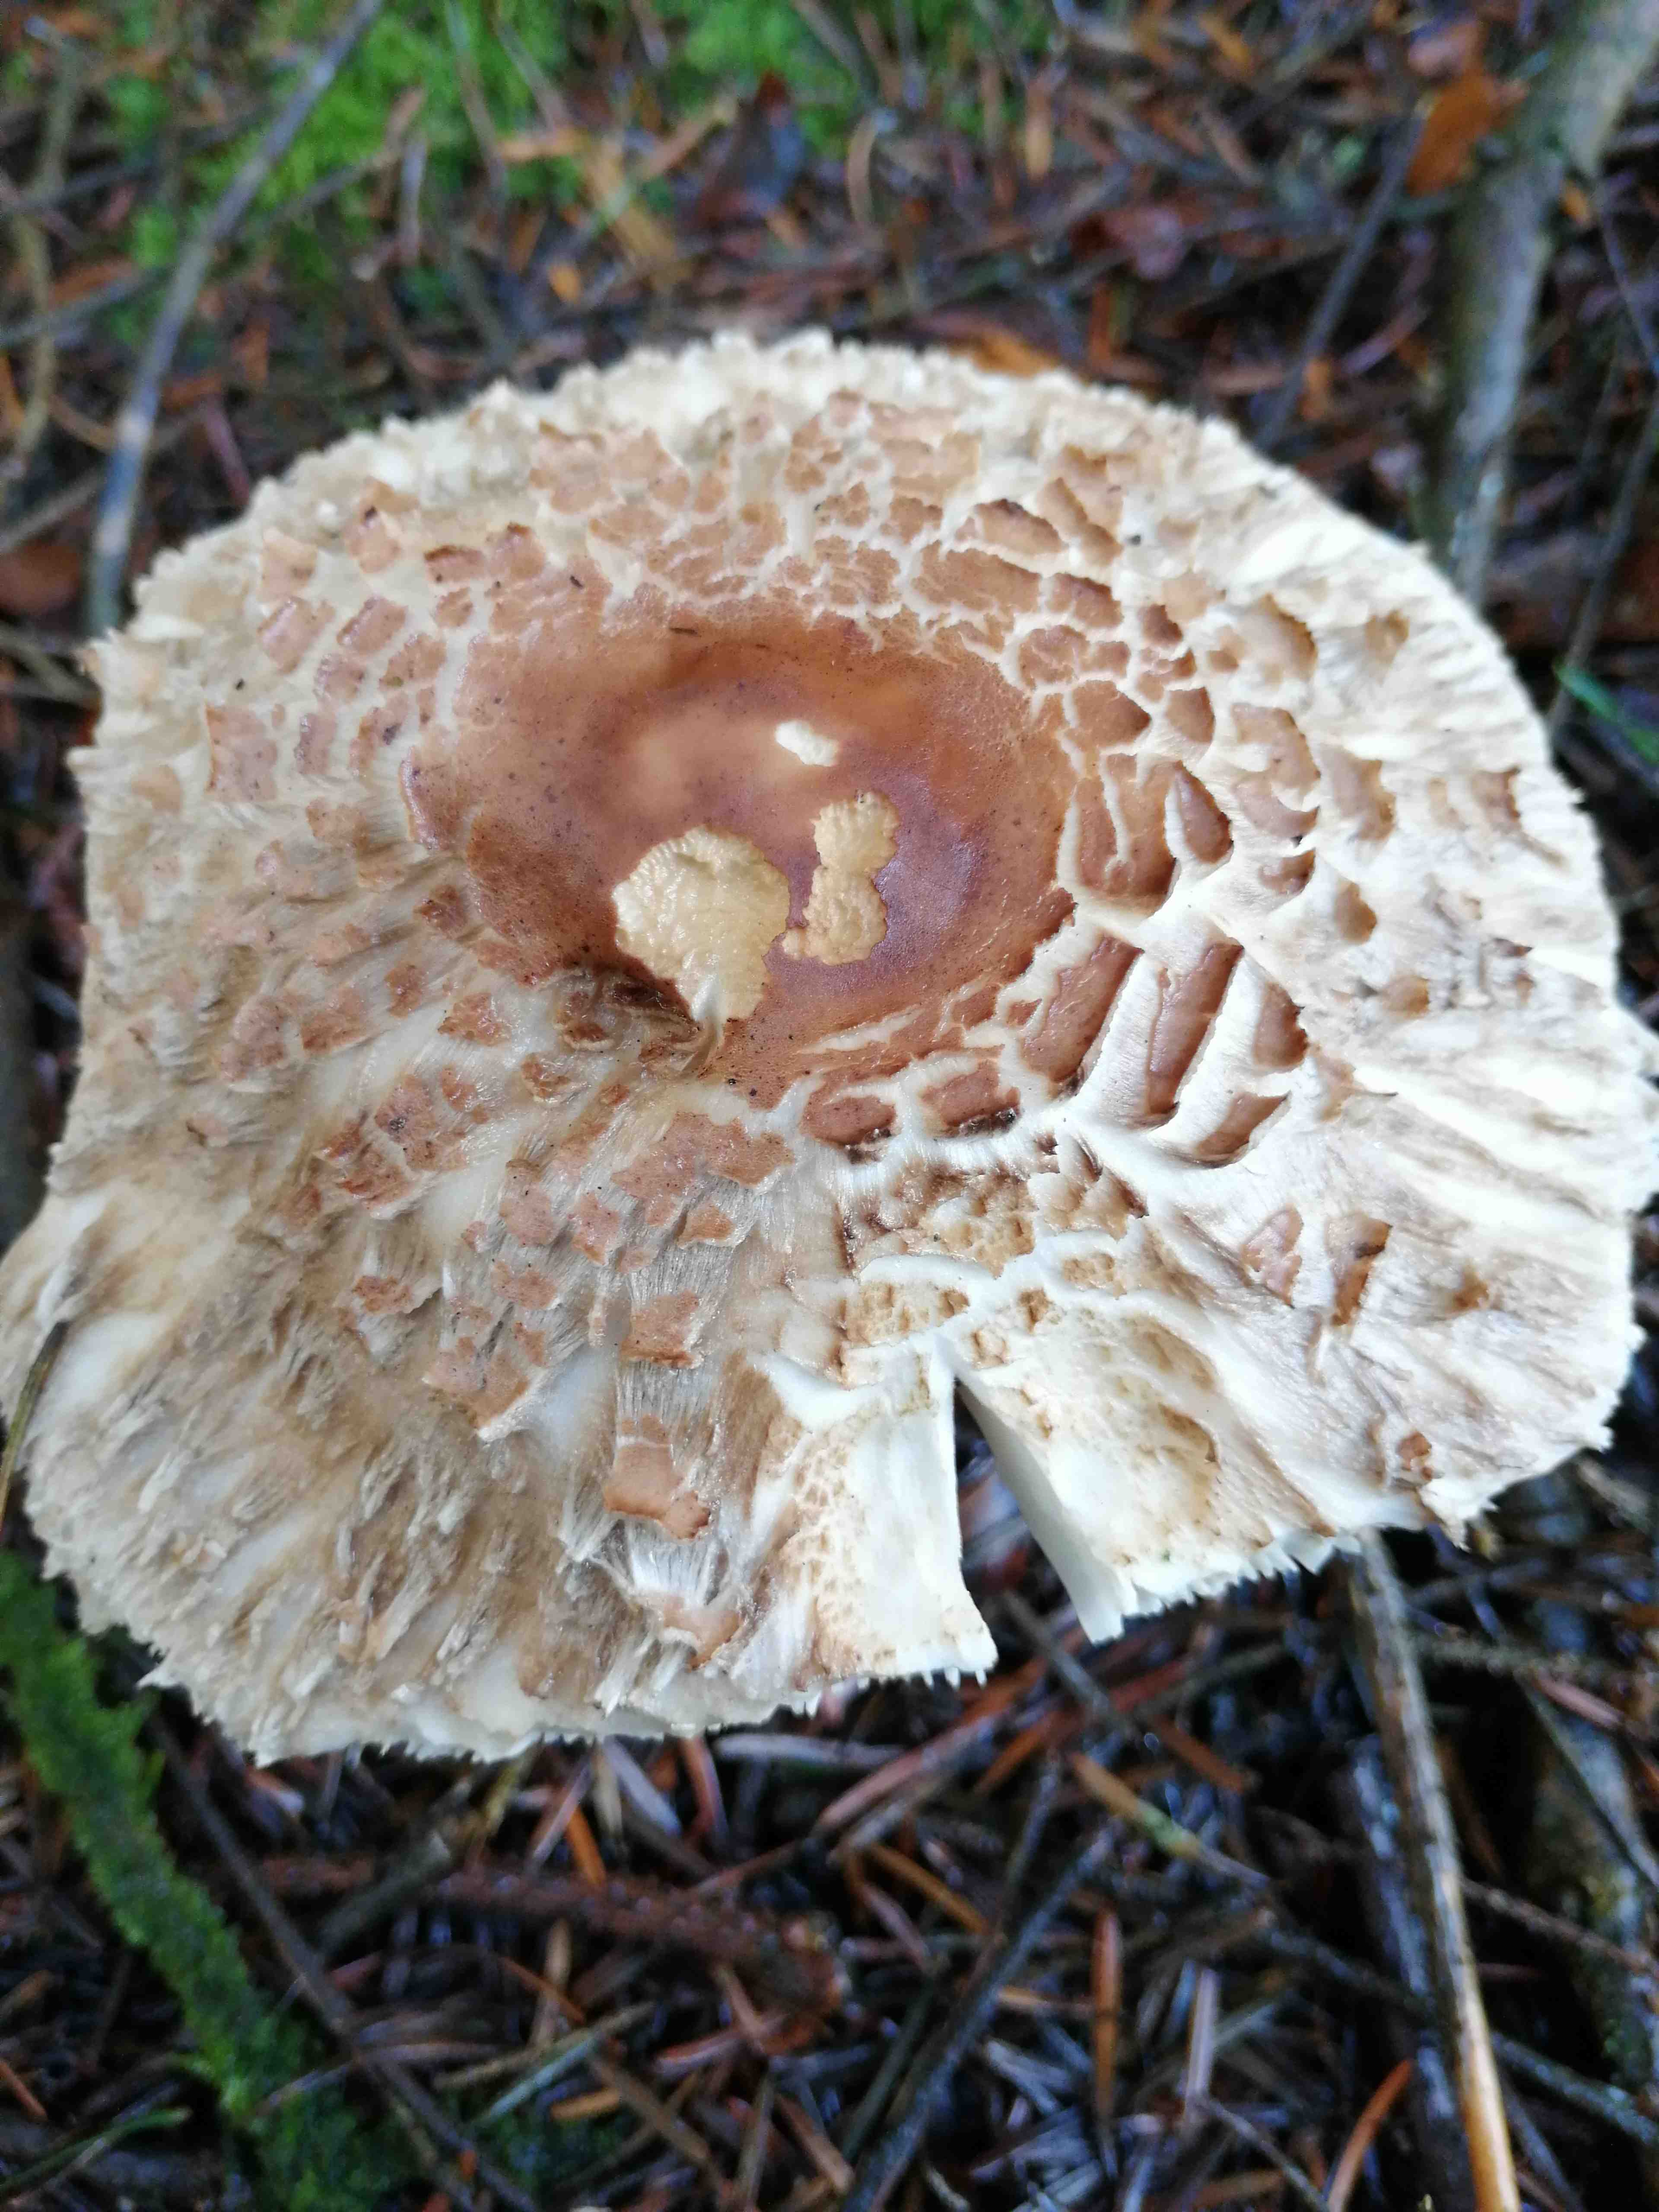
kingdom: Fungi
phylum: Basidiomycota
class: Agaricomycetes
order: Agaricales
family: Agaricaceae
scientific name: Agaricaceae
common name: champignonfamilien
